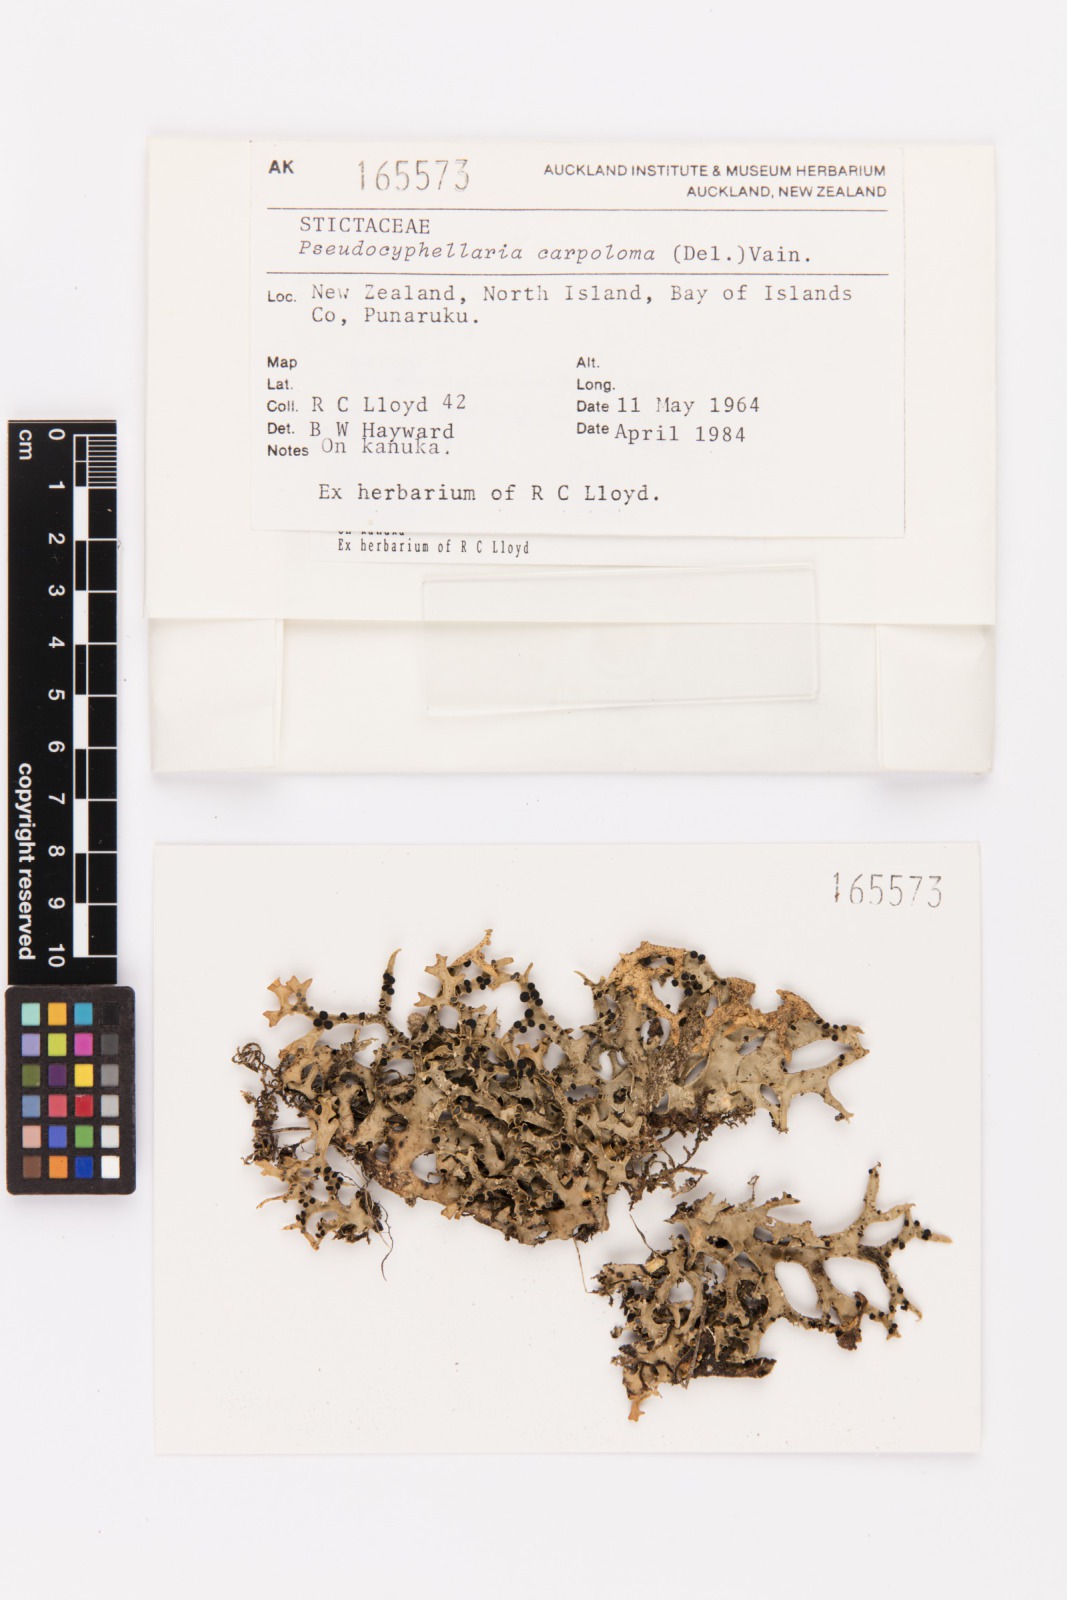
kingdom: Fungi
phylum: Ascomycota
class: Lecanoromycetes
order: Peltigerales
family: Lobariaceae
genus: Pseudocyphellaria
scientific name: Pseudocyphellaria carpoloma
